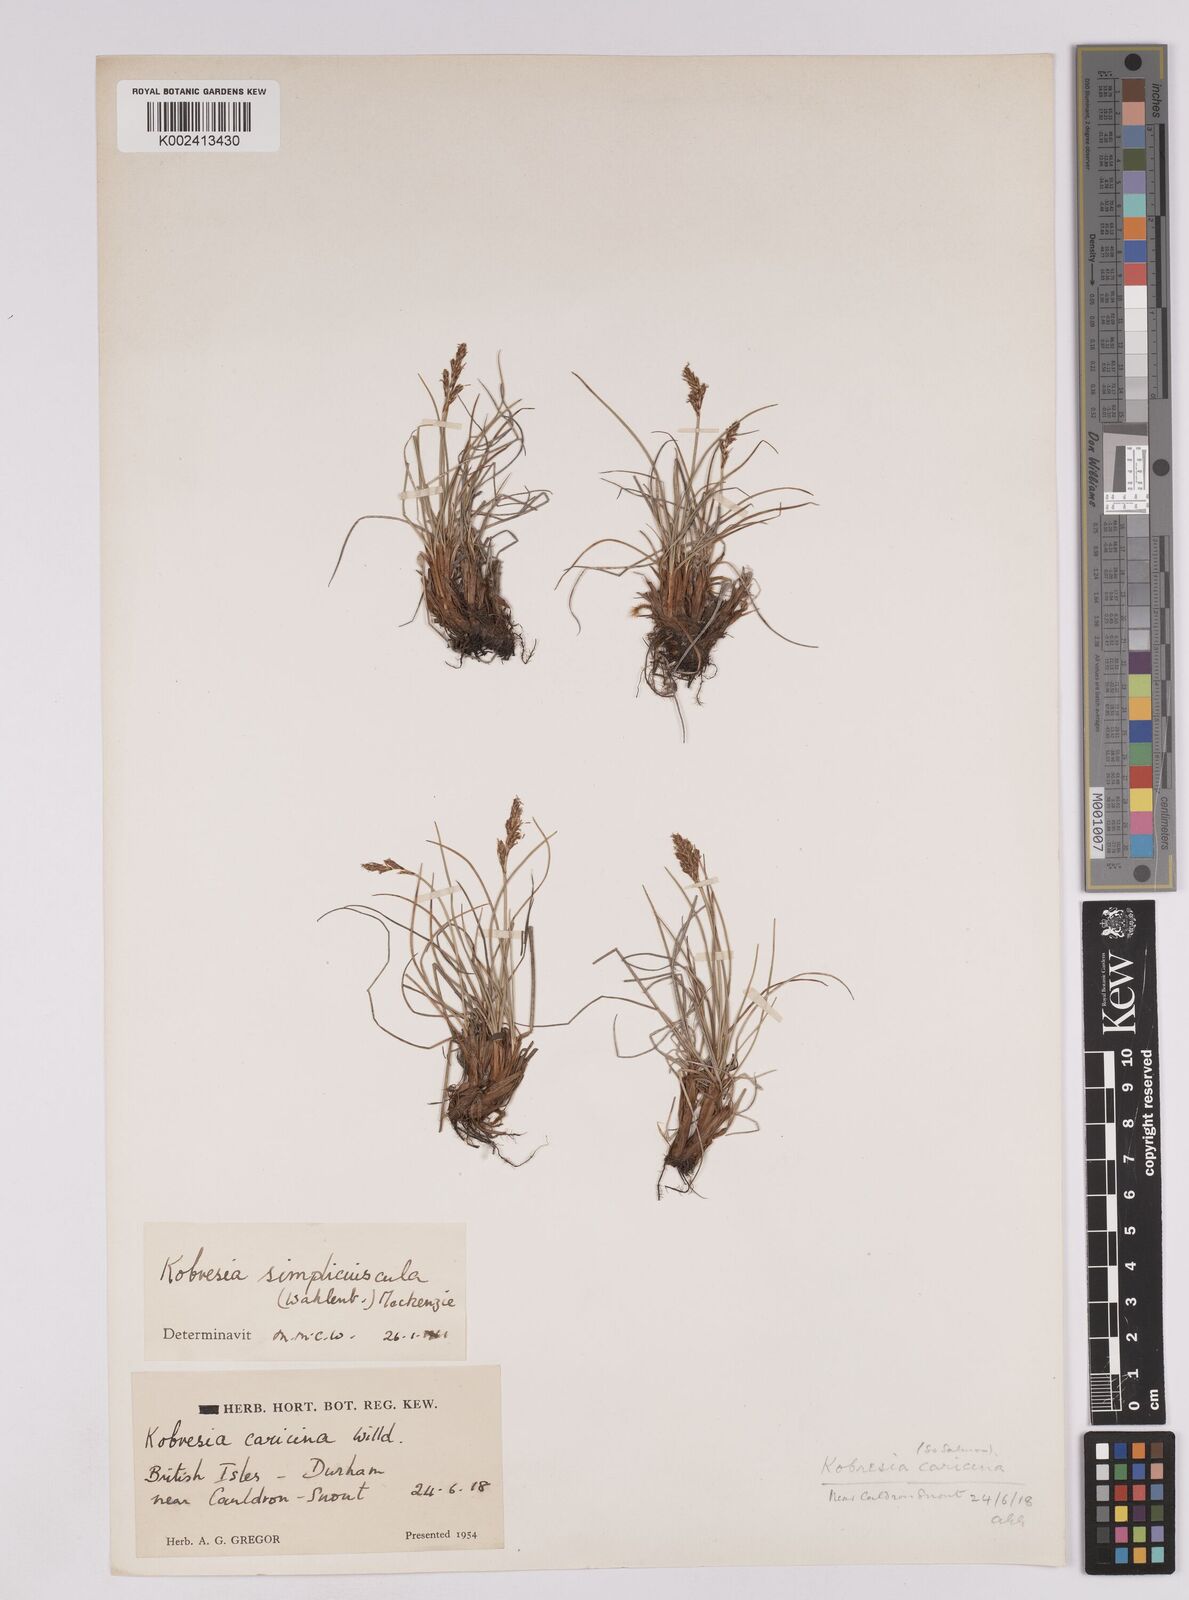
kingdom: Plantae
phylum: Tracheophyta
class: Liliopsida
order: Poales
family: Cyperaceae
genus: Carex
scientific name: Carex simpliciuscula
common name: Simple bog sedge
